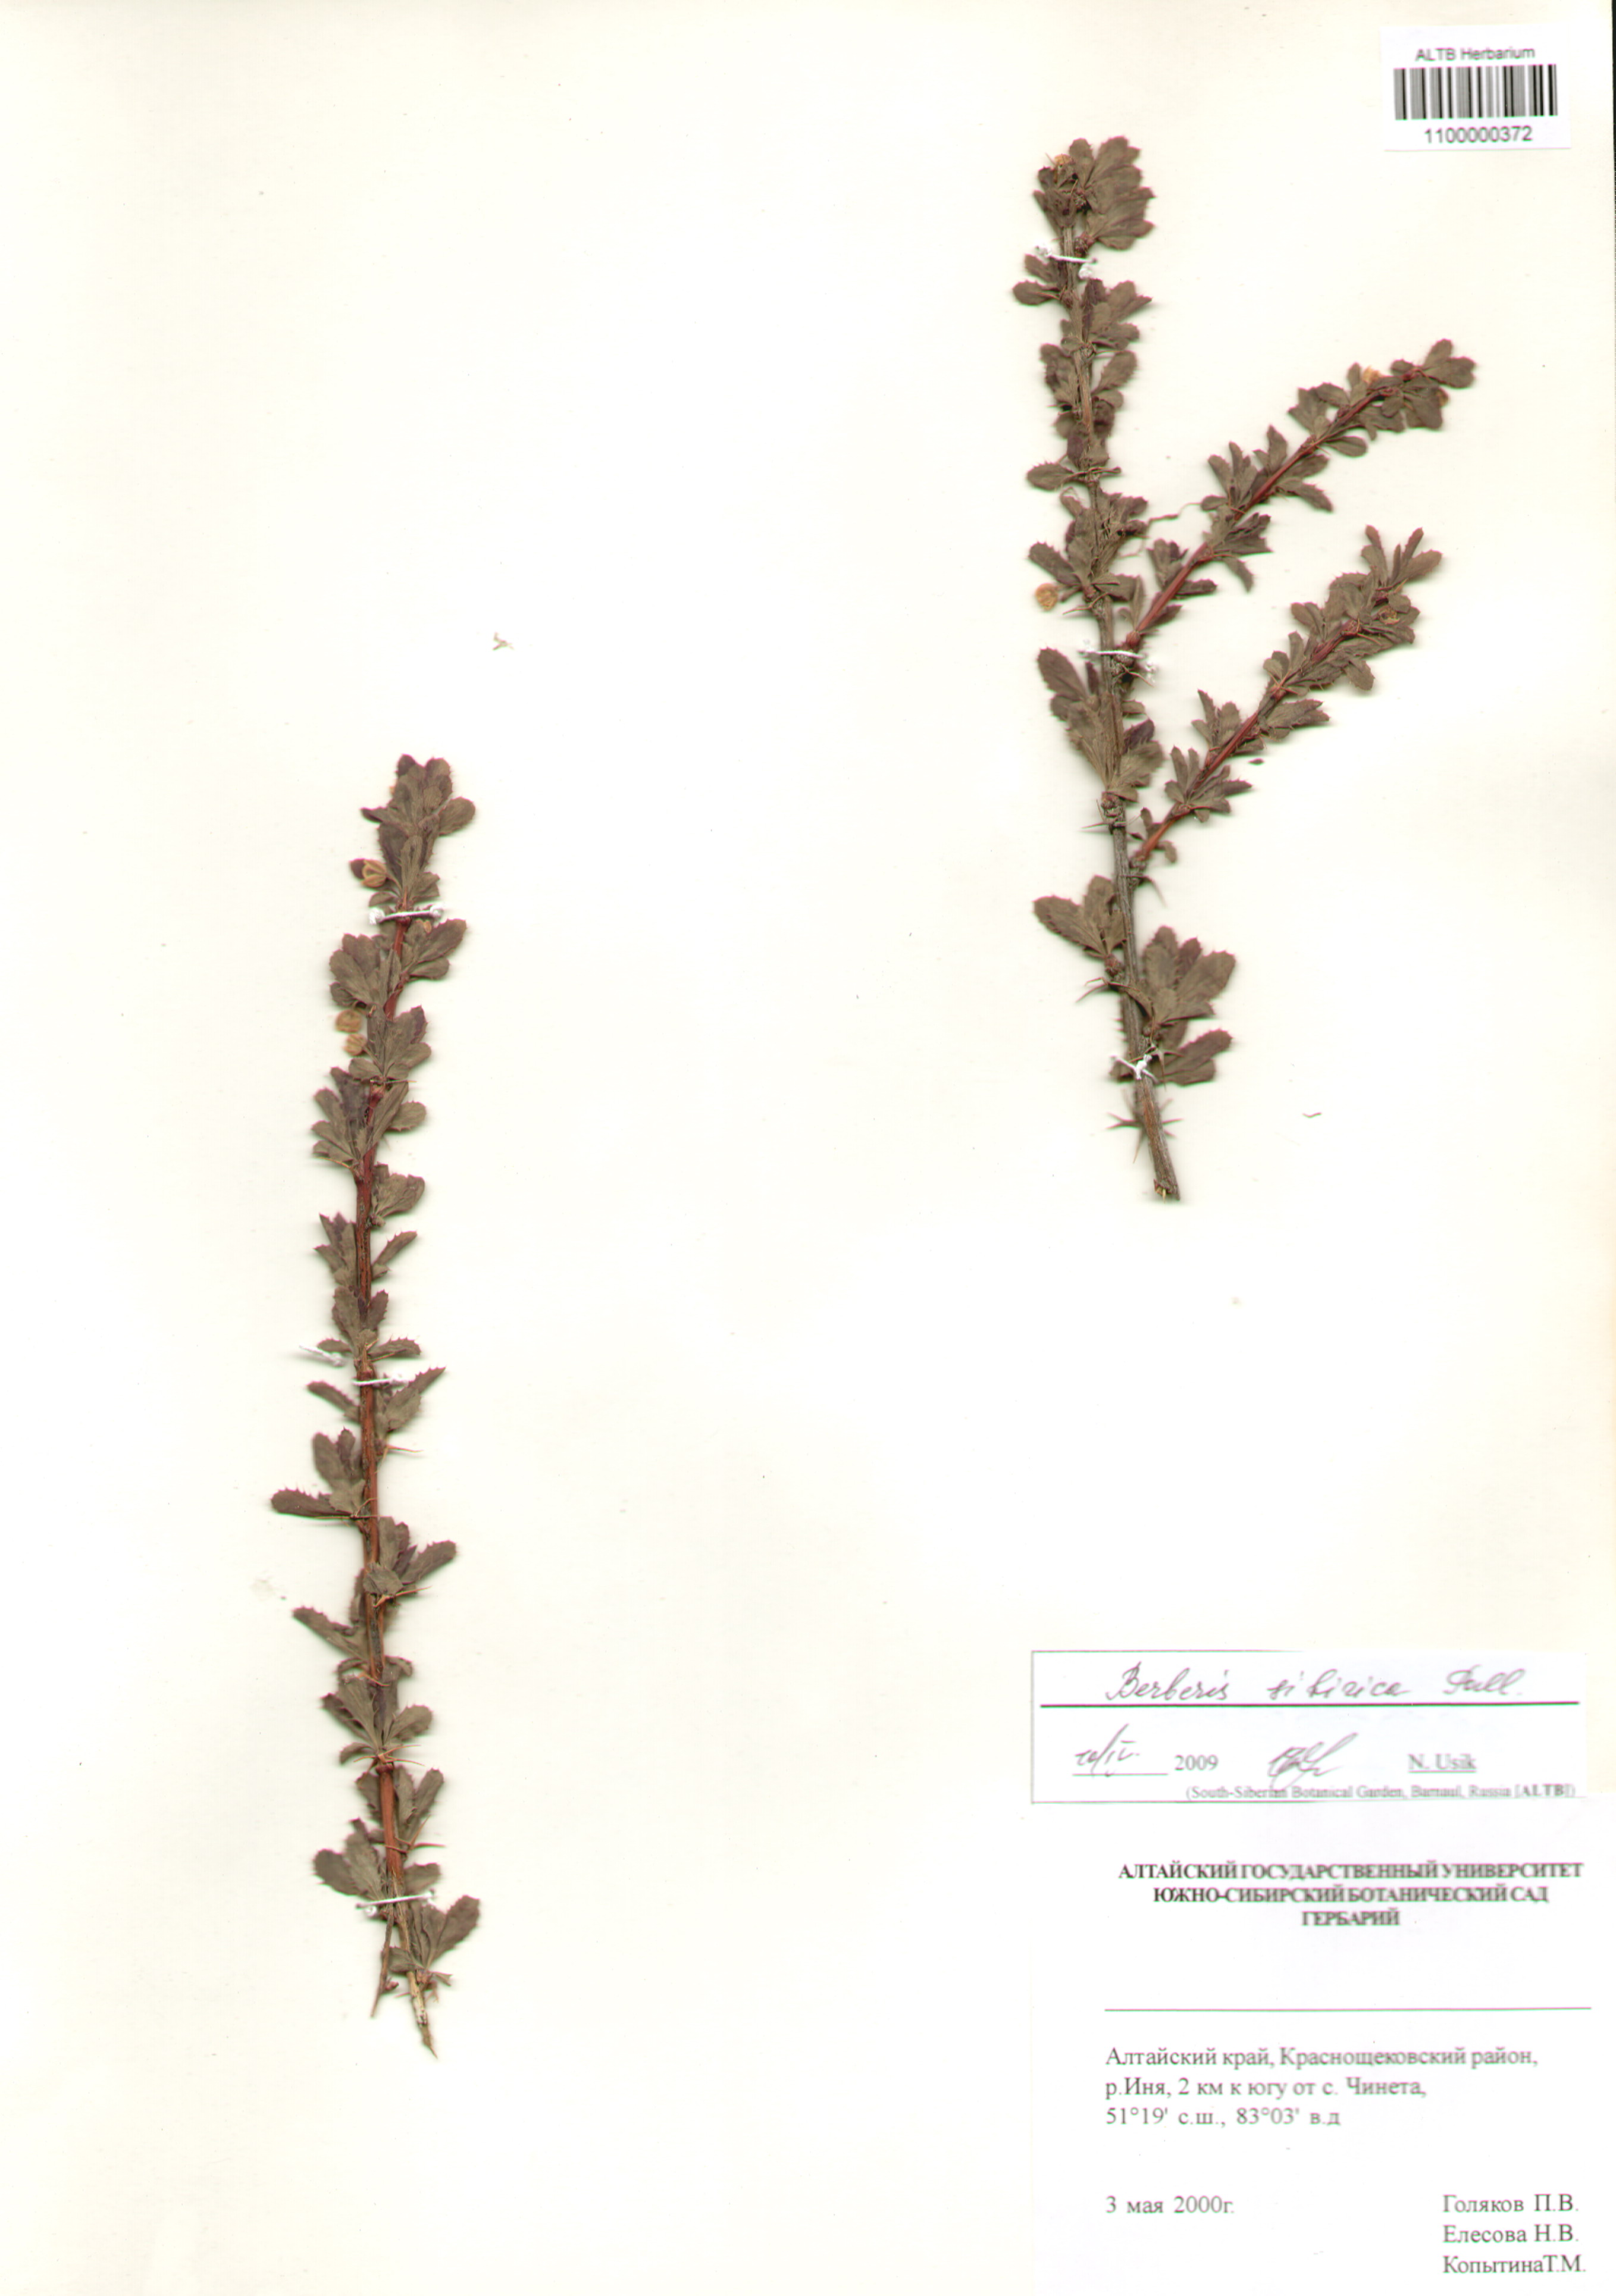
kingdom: Plantae
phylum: Tracheophyta
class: Magnoliopsida
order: Ranunculales
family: Berberidaceae
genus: Berberis
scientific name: Berberis sibirica
